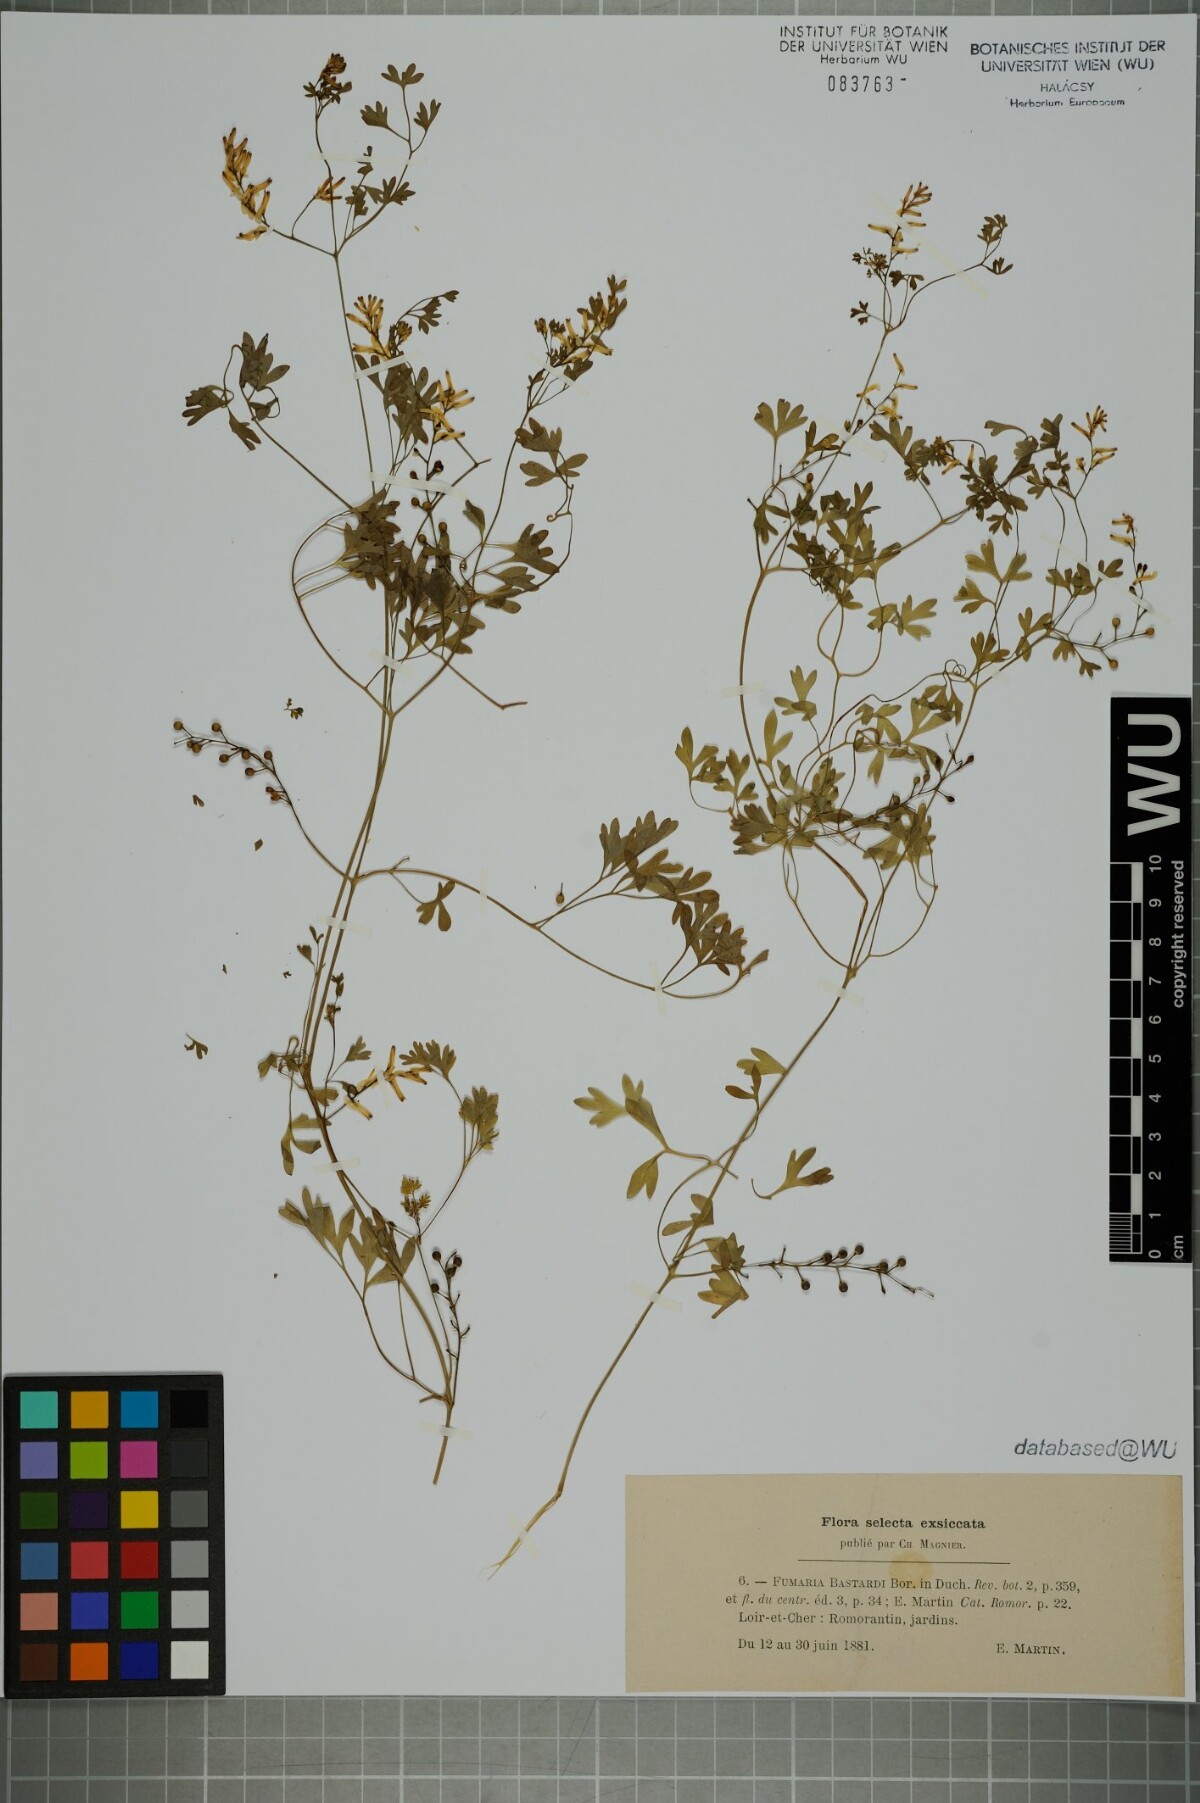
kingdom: Plantae
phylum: Tracheophyta
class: Magnoliopsida
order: Ranunculales
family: Papaveraceae
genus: Fumaria
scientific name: Fumaria bastardii
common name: Tall ramping-fumitory
